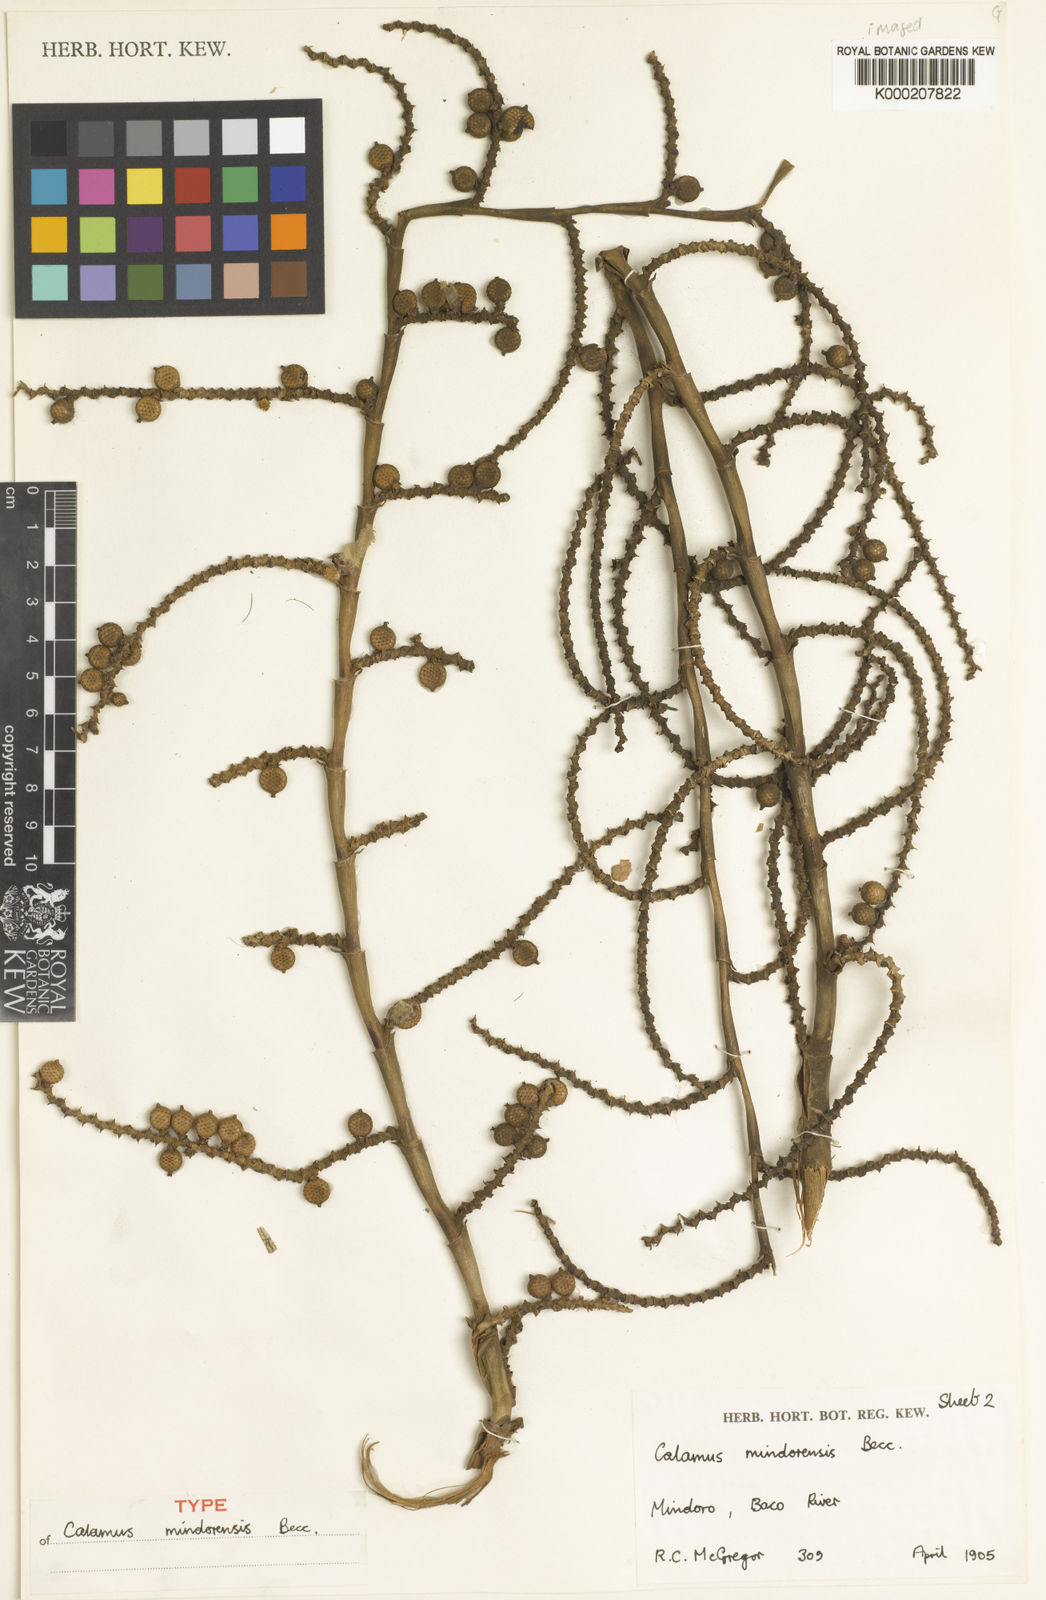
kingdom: Plantae
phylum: Tracheophyta
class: Liliopsida
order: Arecales
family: Arecaceae
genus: Calamus
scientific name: Calamus moseleyanus
